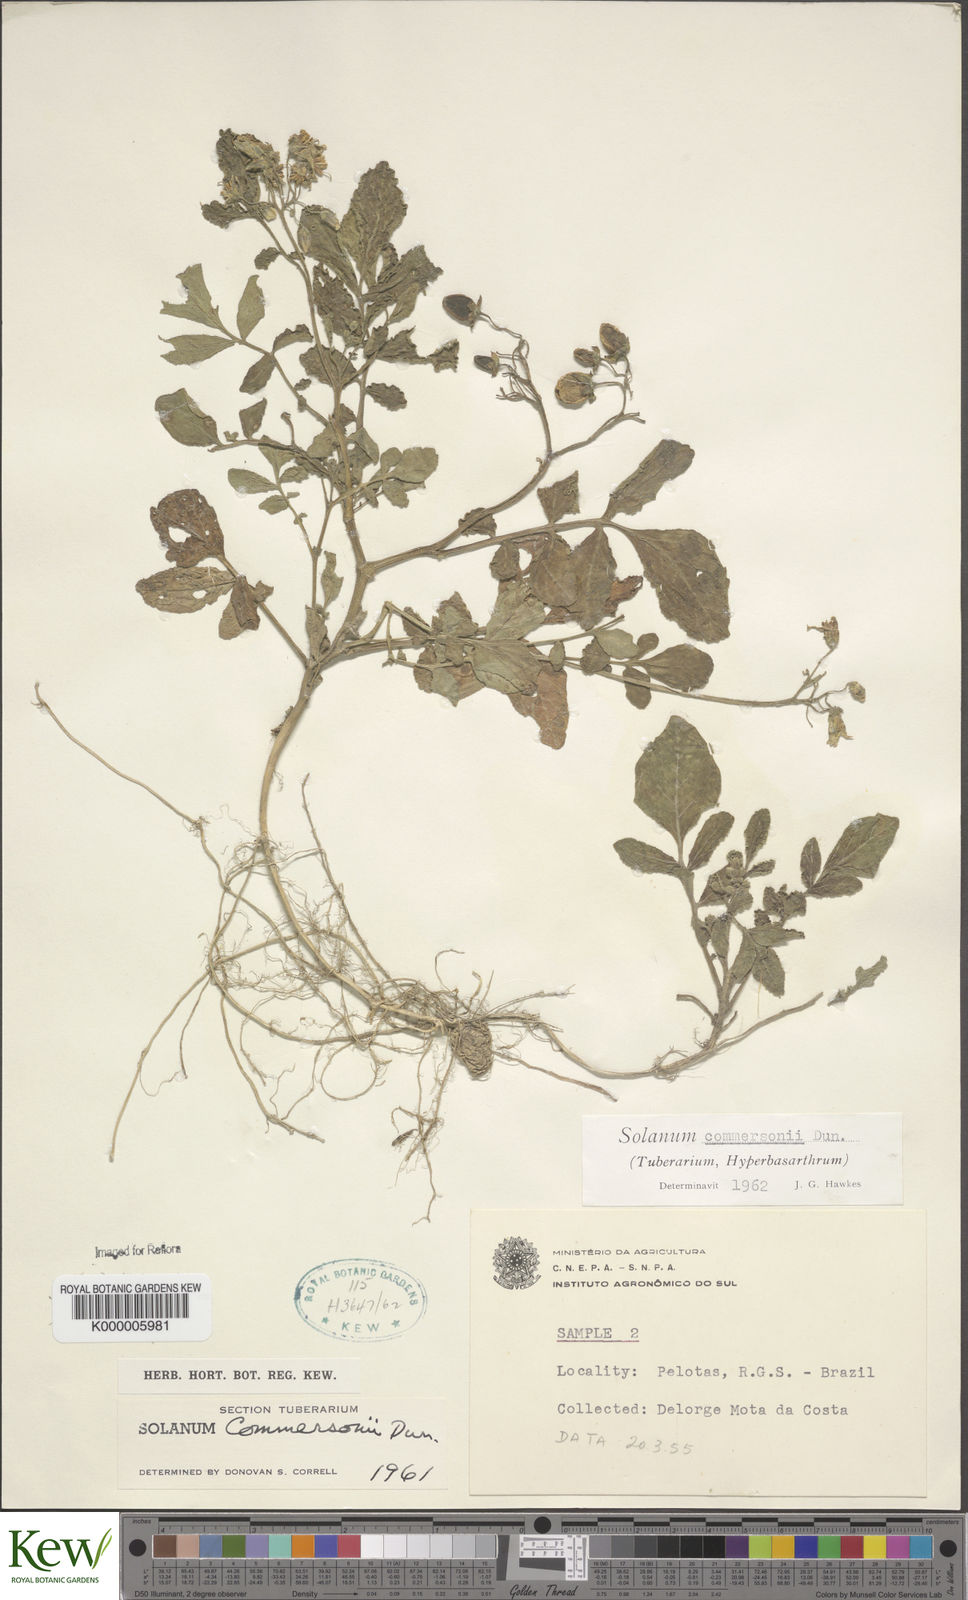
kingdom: Plantae
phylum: Tracheophyta
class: Magnoliopsida
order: Solanales
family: Solanaceae
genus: Solanum
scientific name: Solanum commersonii
